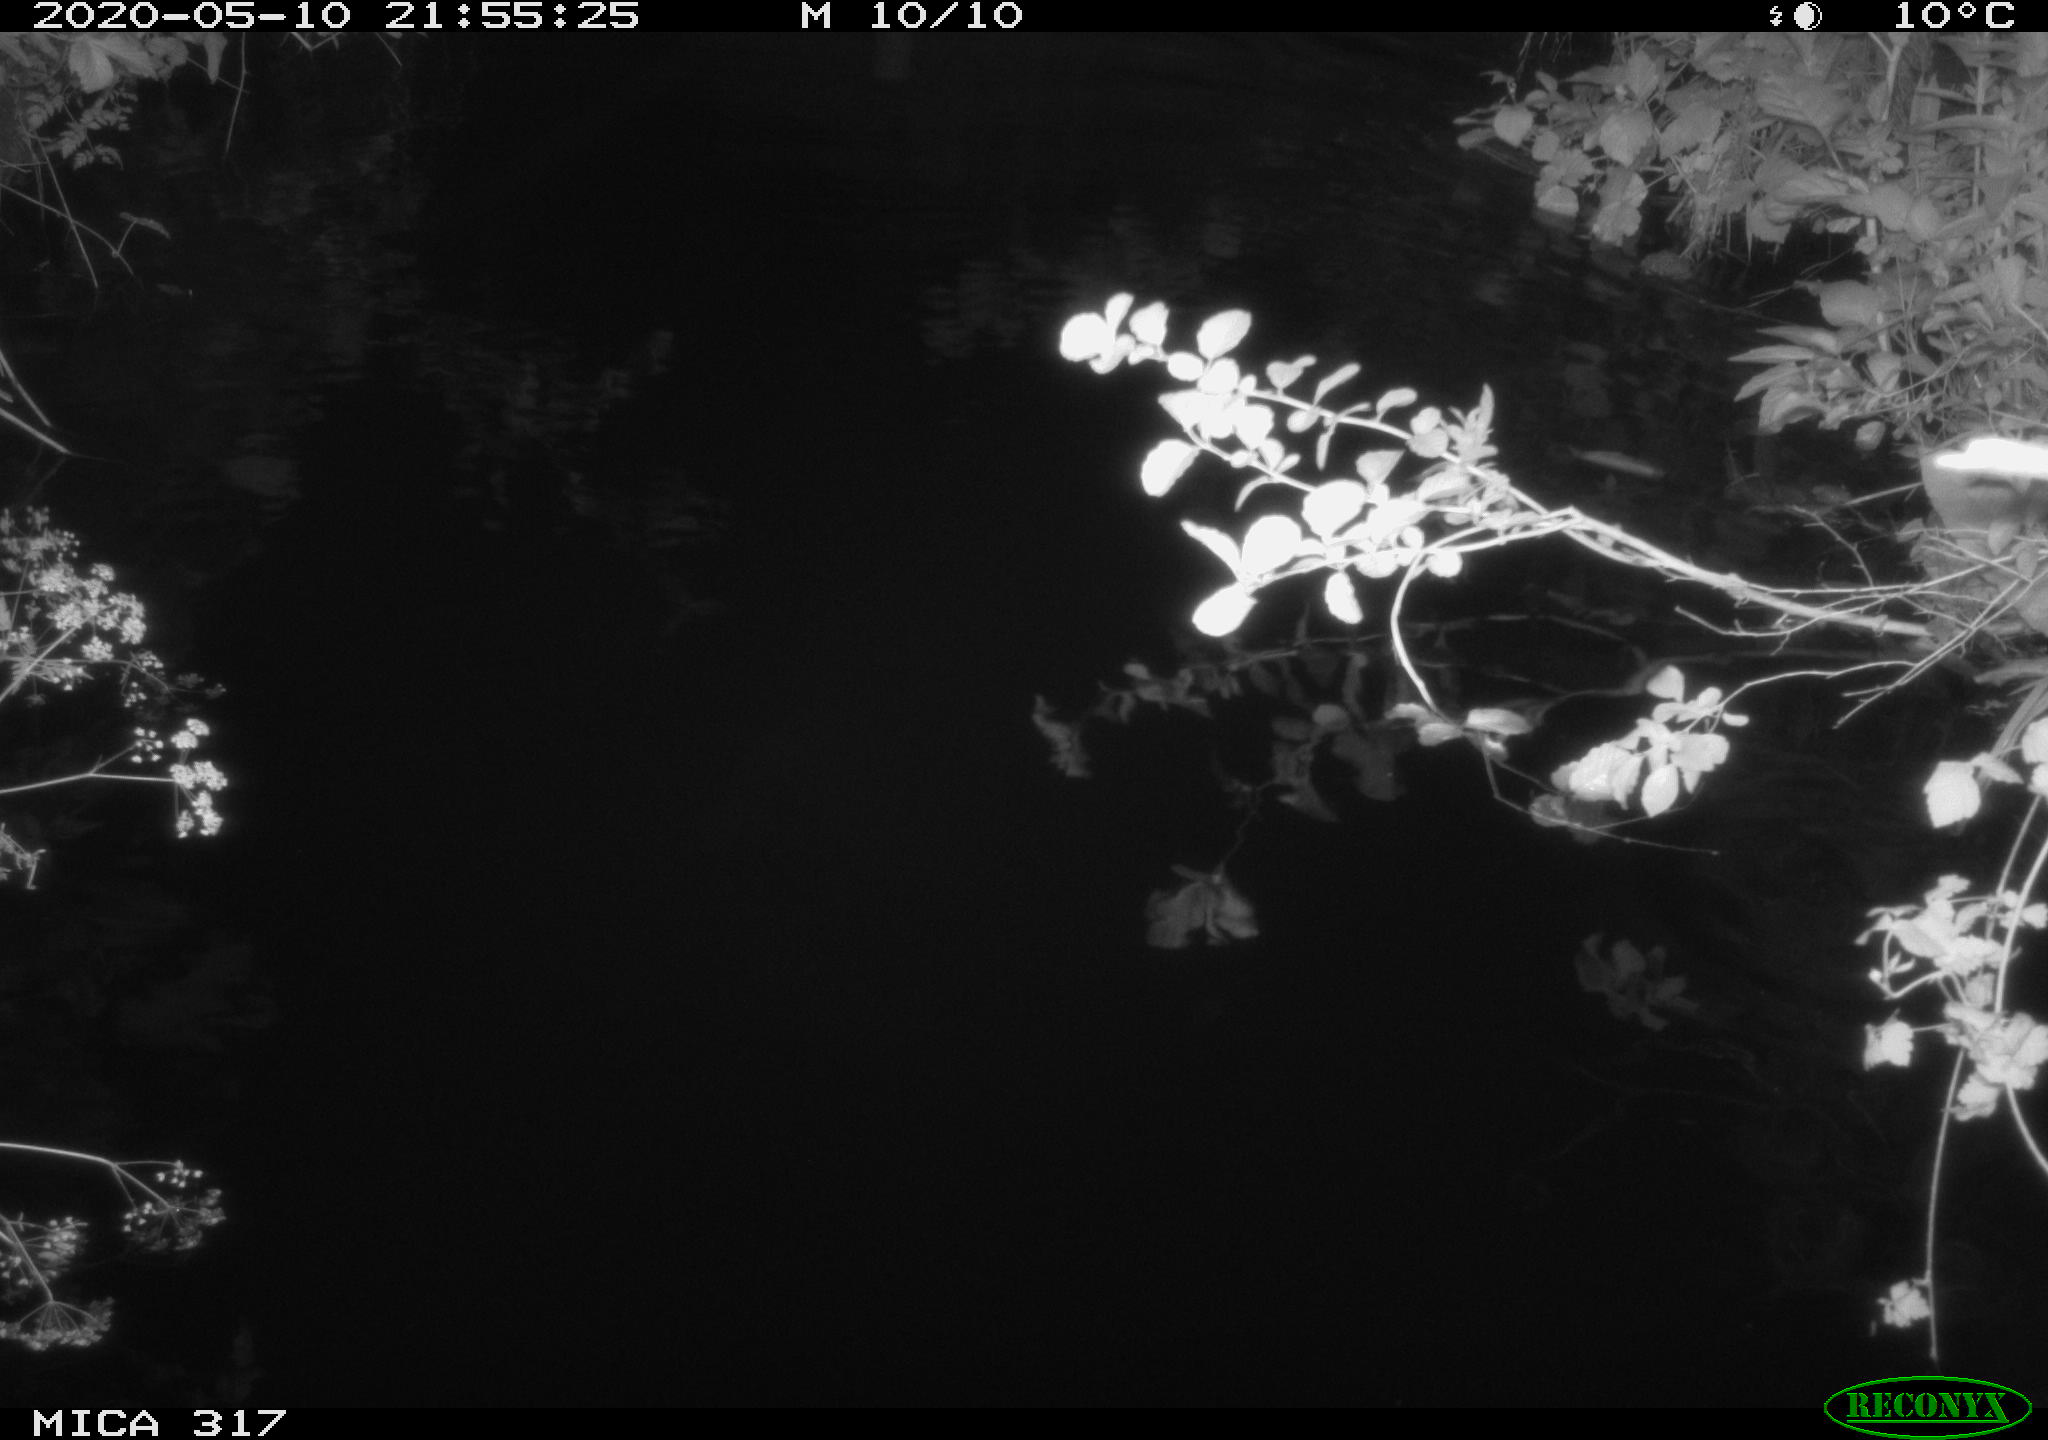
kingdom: Animalia
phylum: Chordata
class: Aves
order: Anseriformes
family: Anatidae
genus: Anas
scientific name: Anas platyrhynchos
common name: Mallard
